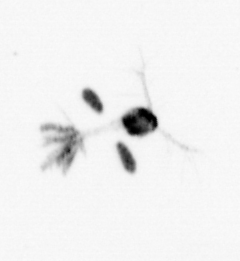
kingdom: Animalia
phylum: Arthropoda
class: Copepoda
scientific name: Copepoda
